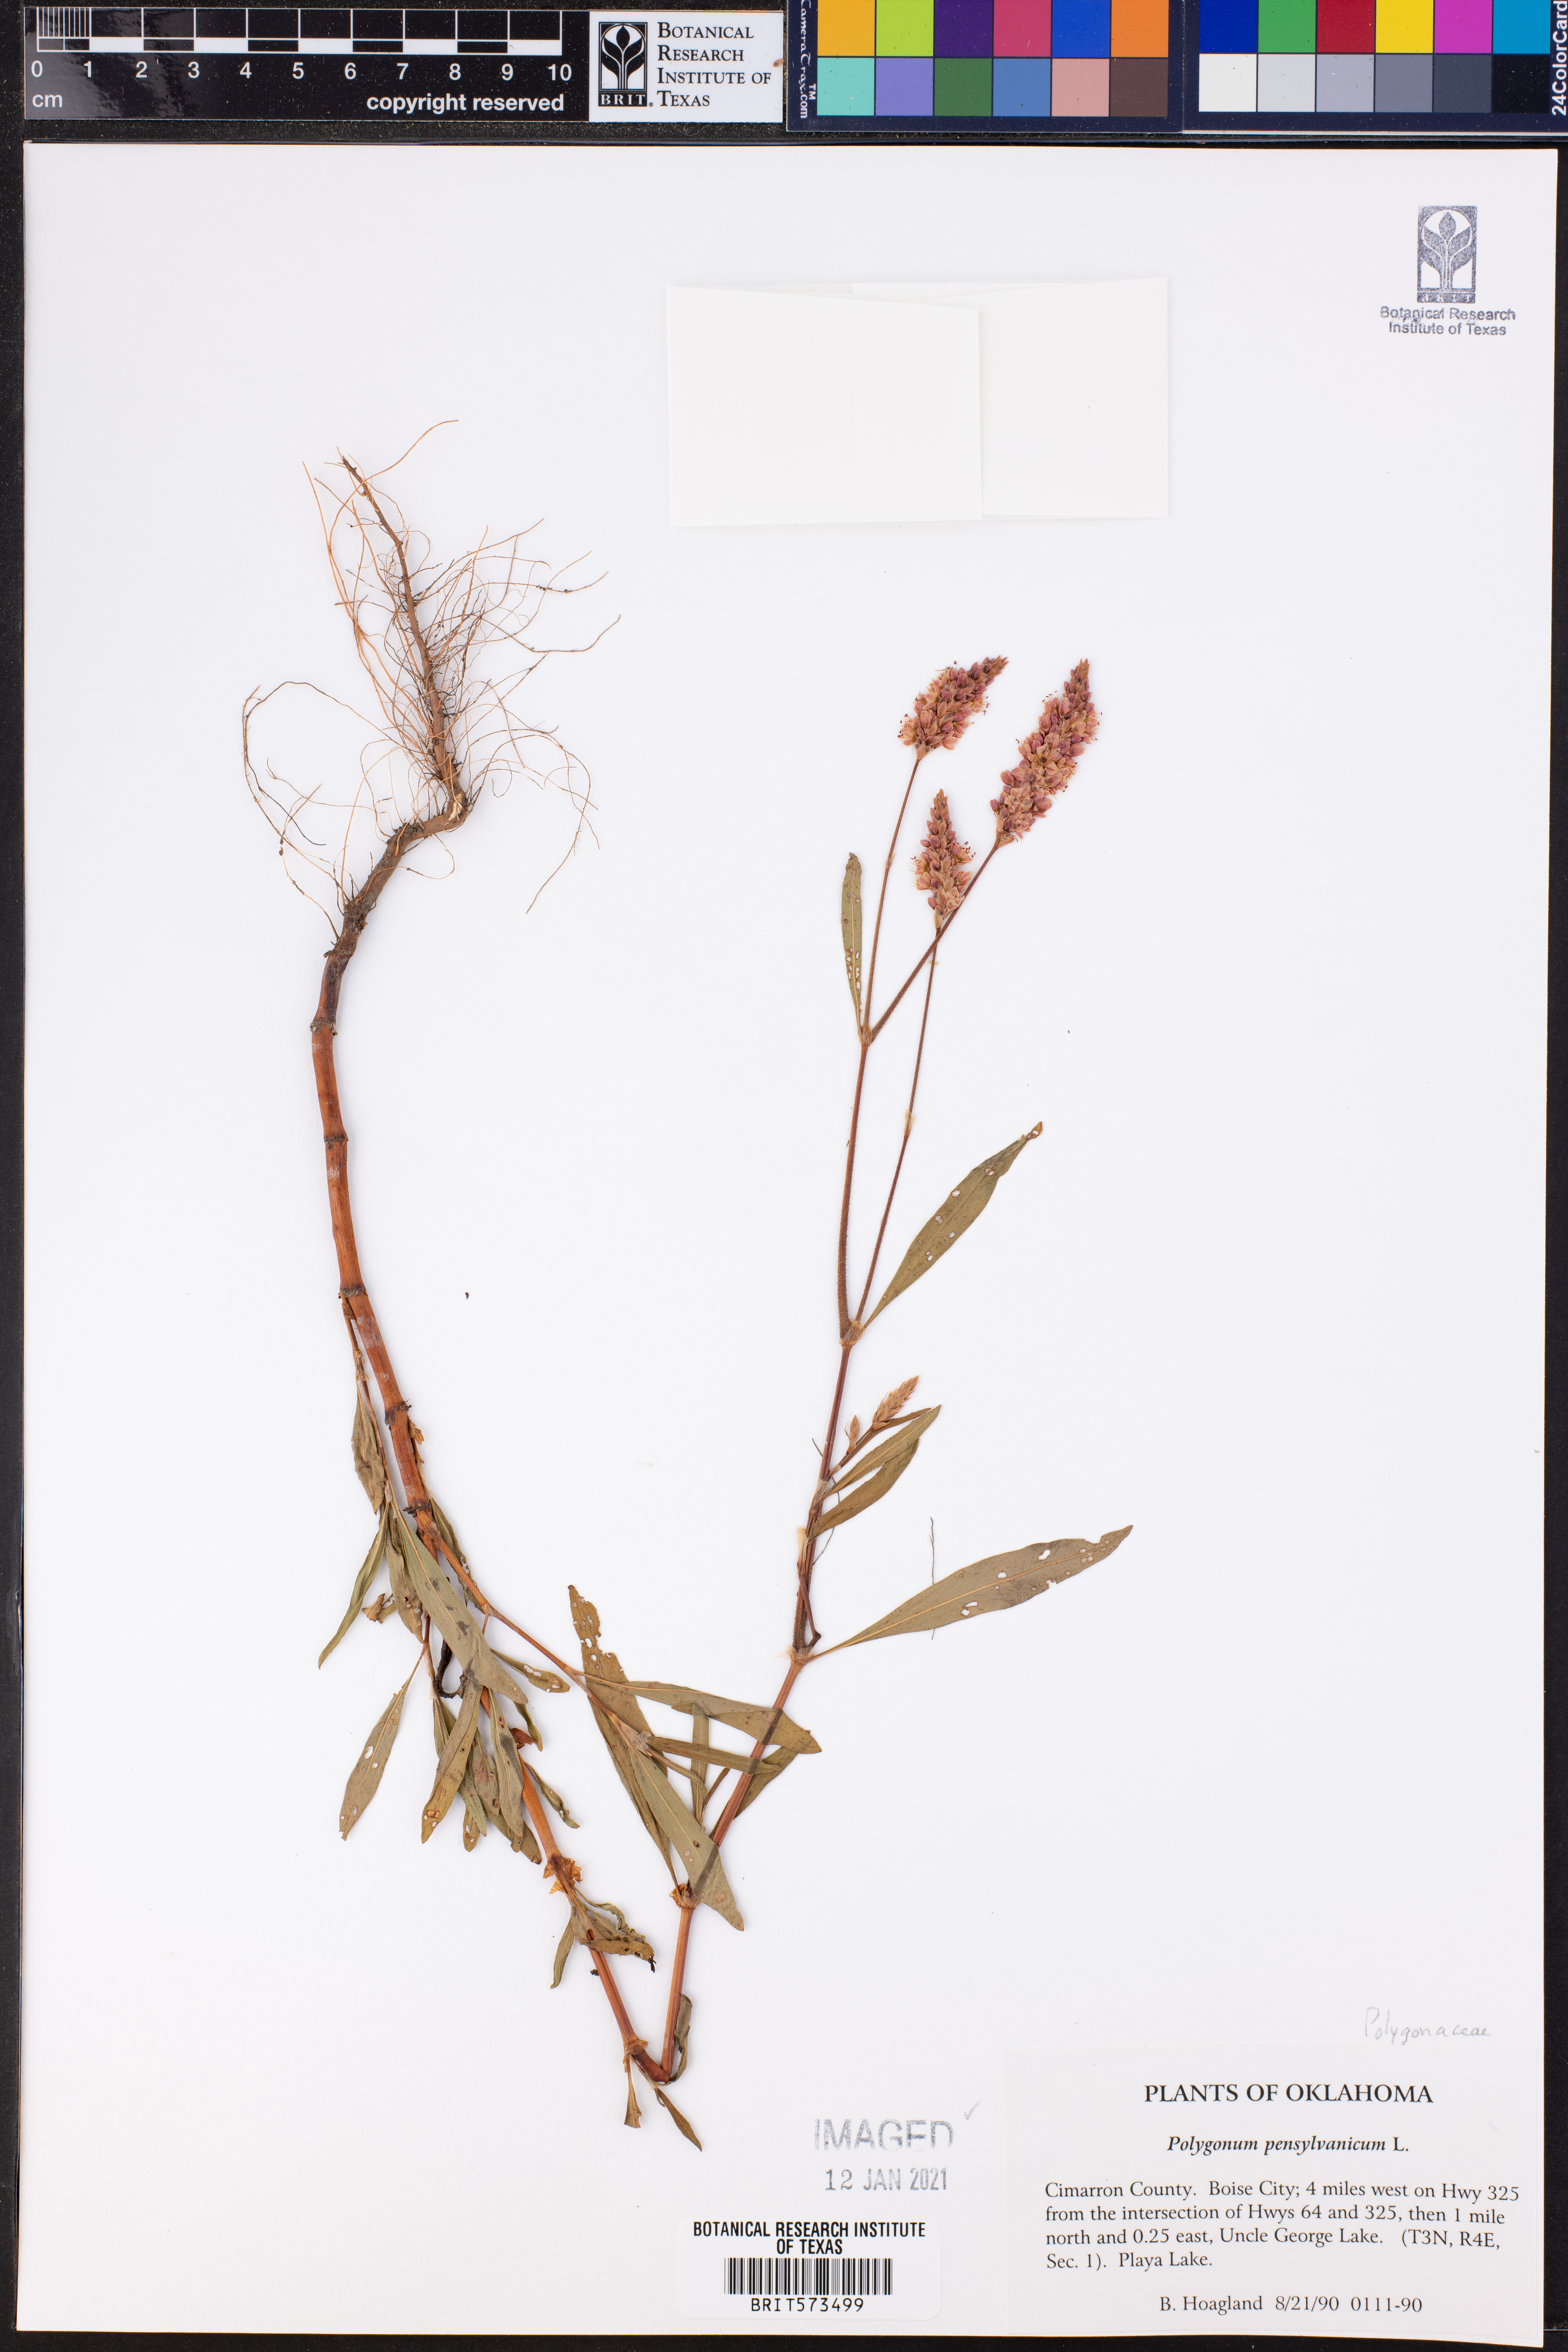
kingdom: Plantae
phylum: Tracheophyta
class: Magnoliopsida
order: Caryophyllales
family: Polygonaceae
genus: Persicaria
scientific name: Persicaria pensylvanica
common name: Pinkweed
